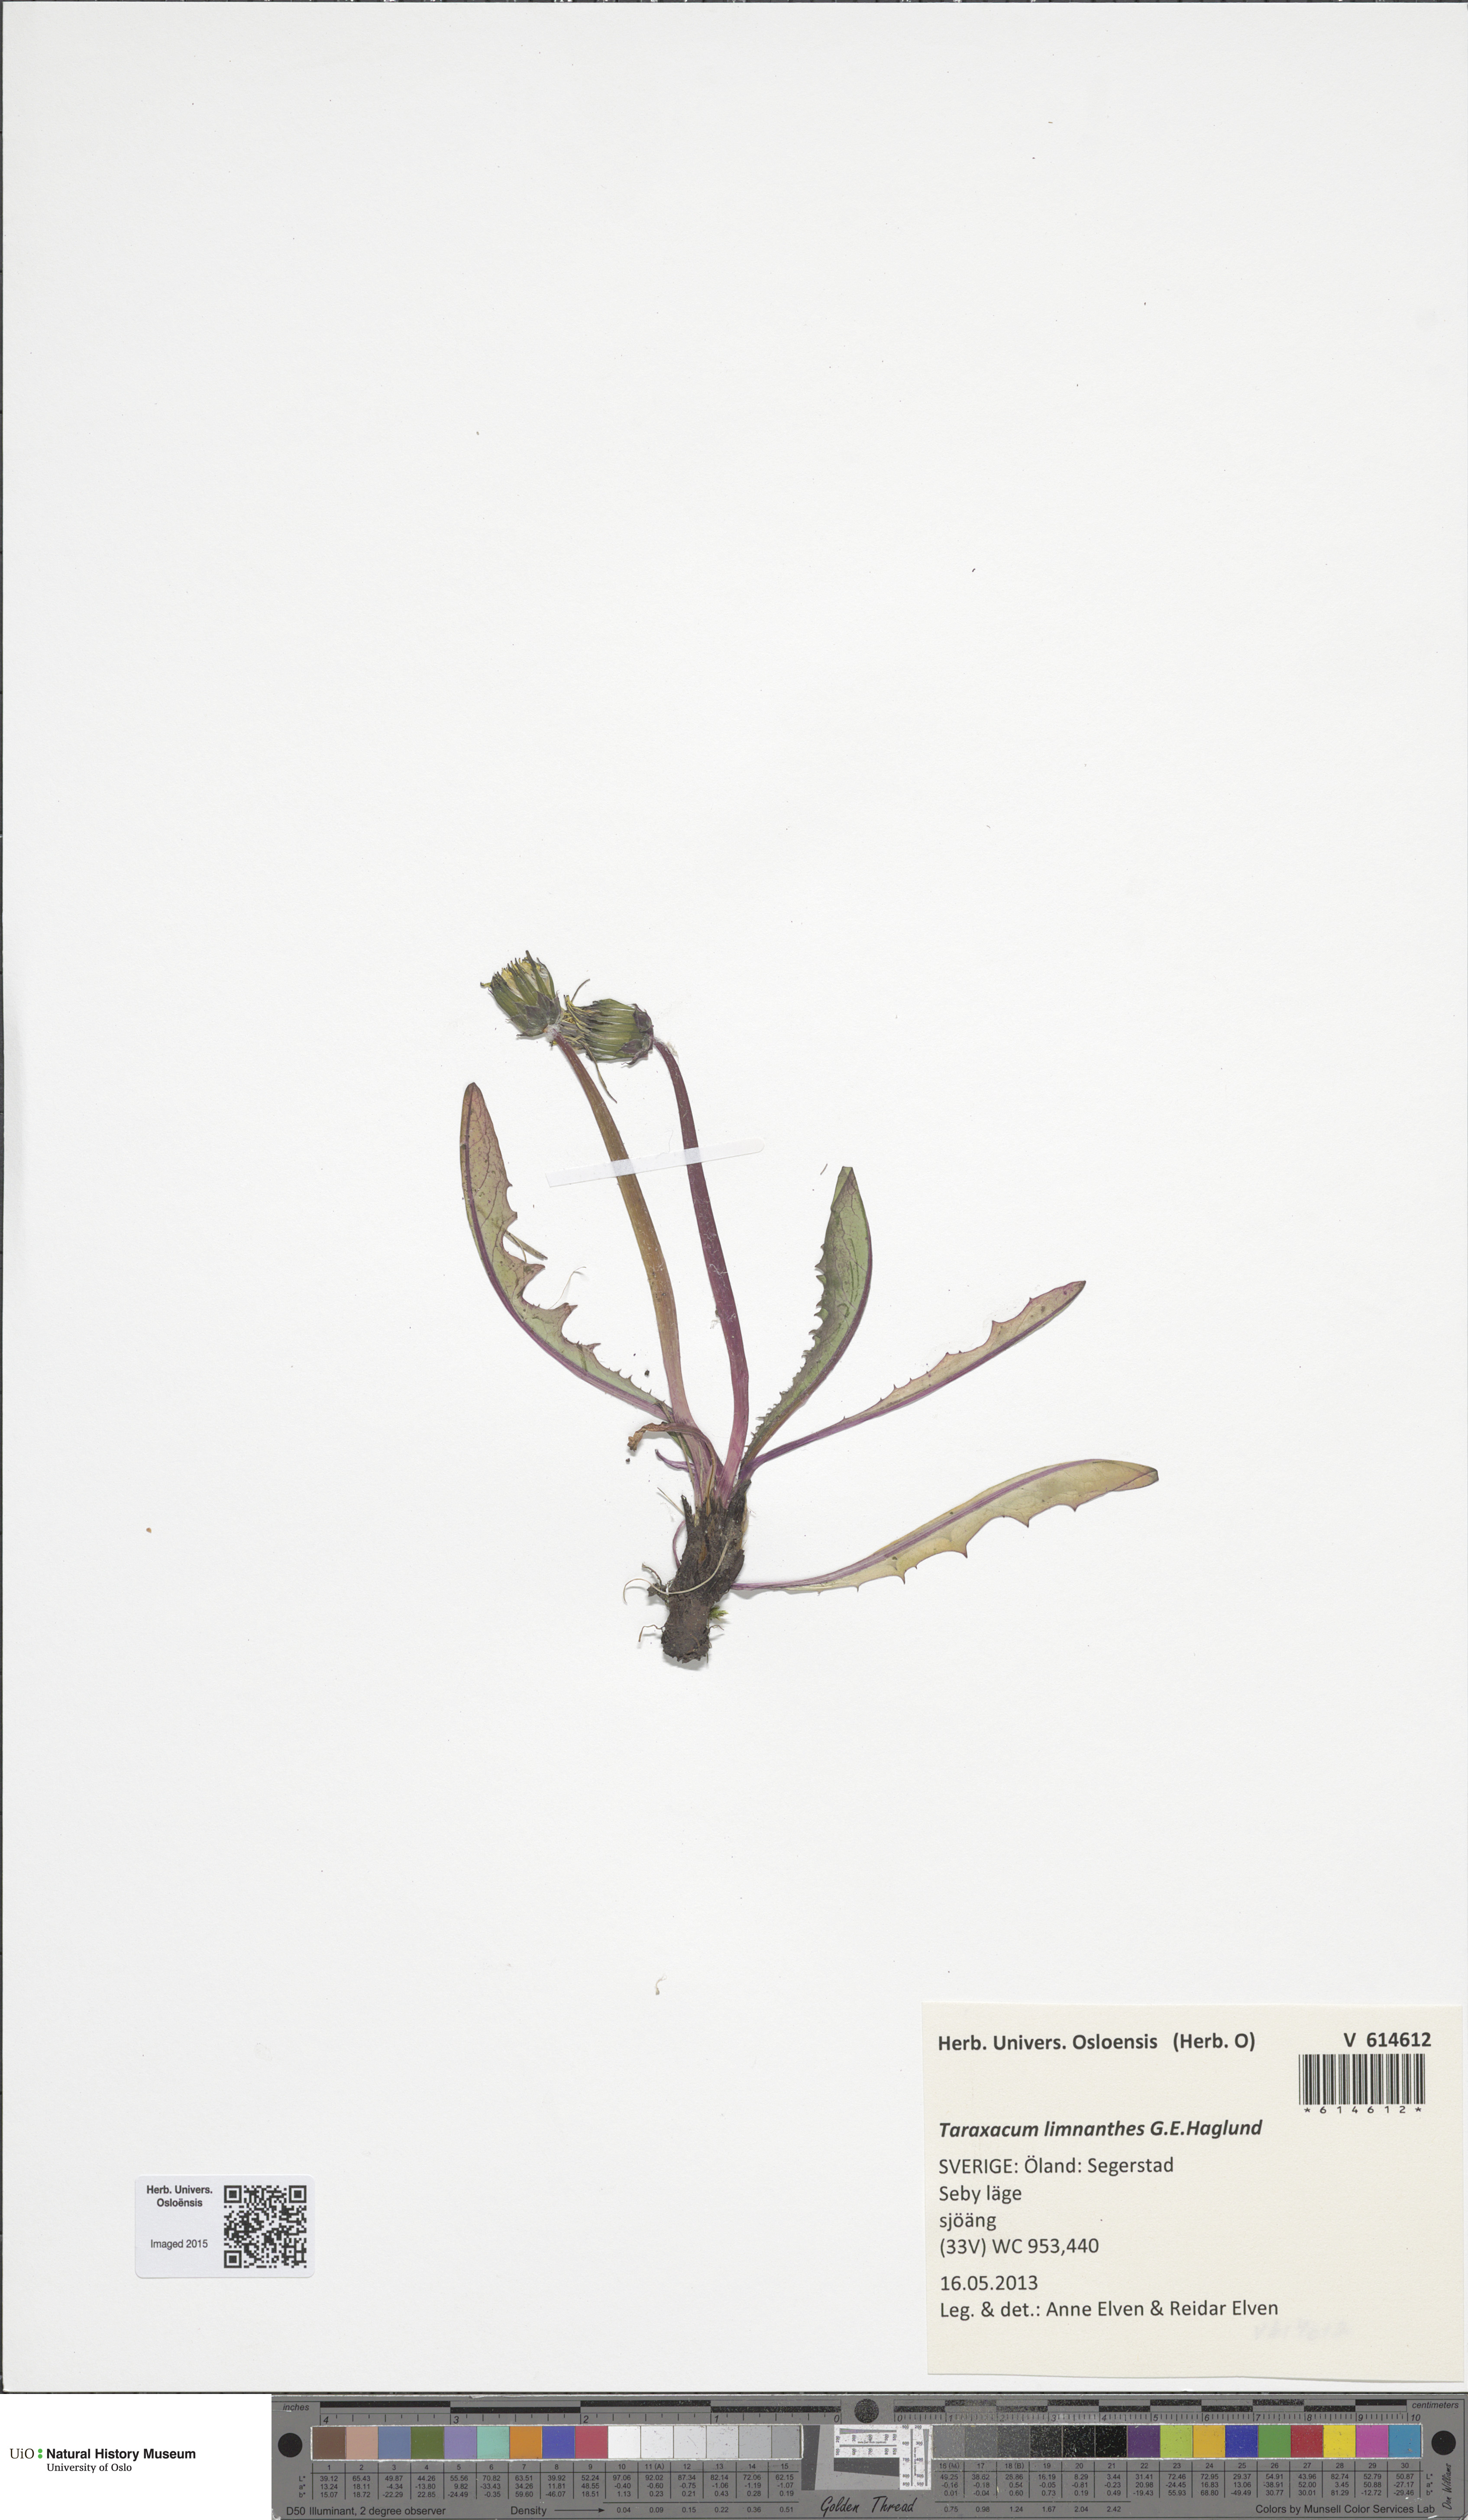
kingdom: Plantae
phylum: Tracheophyta
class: Magnoliopsida
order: Asterales
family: Asteraceae
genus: Taraxacum
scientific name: Taraxacum limnanthes
